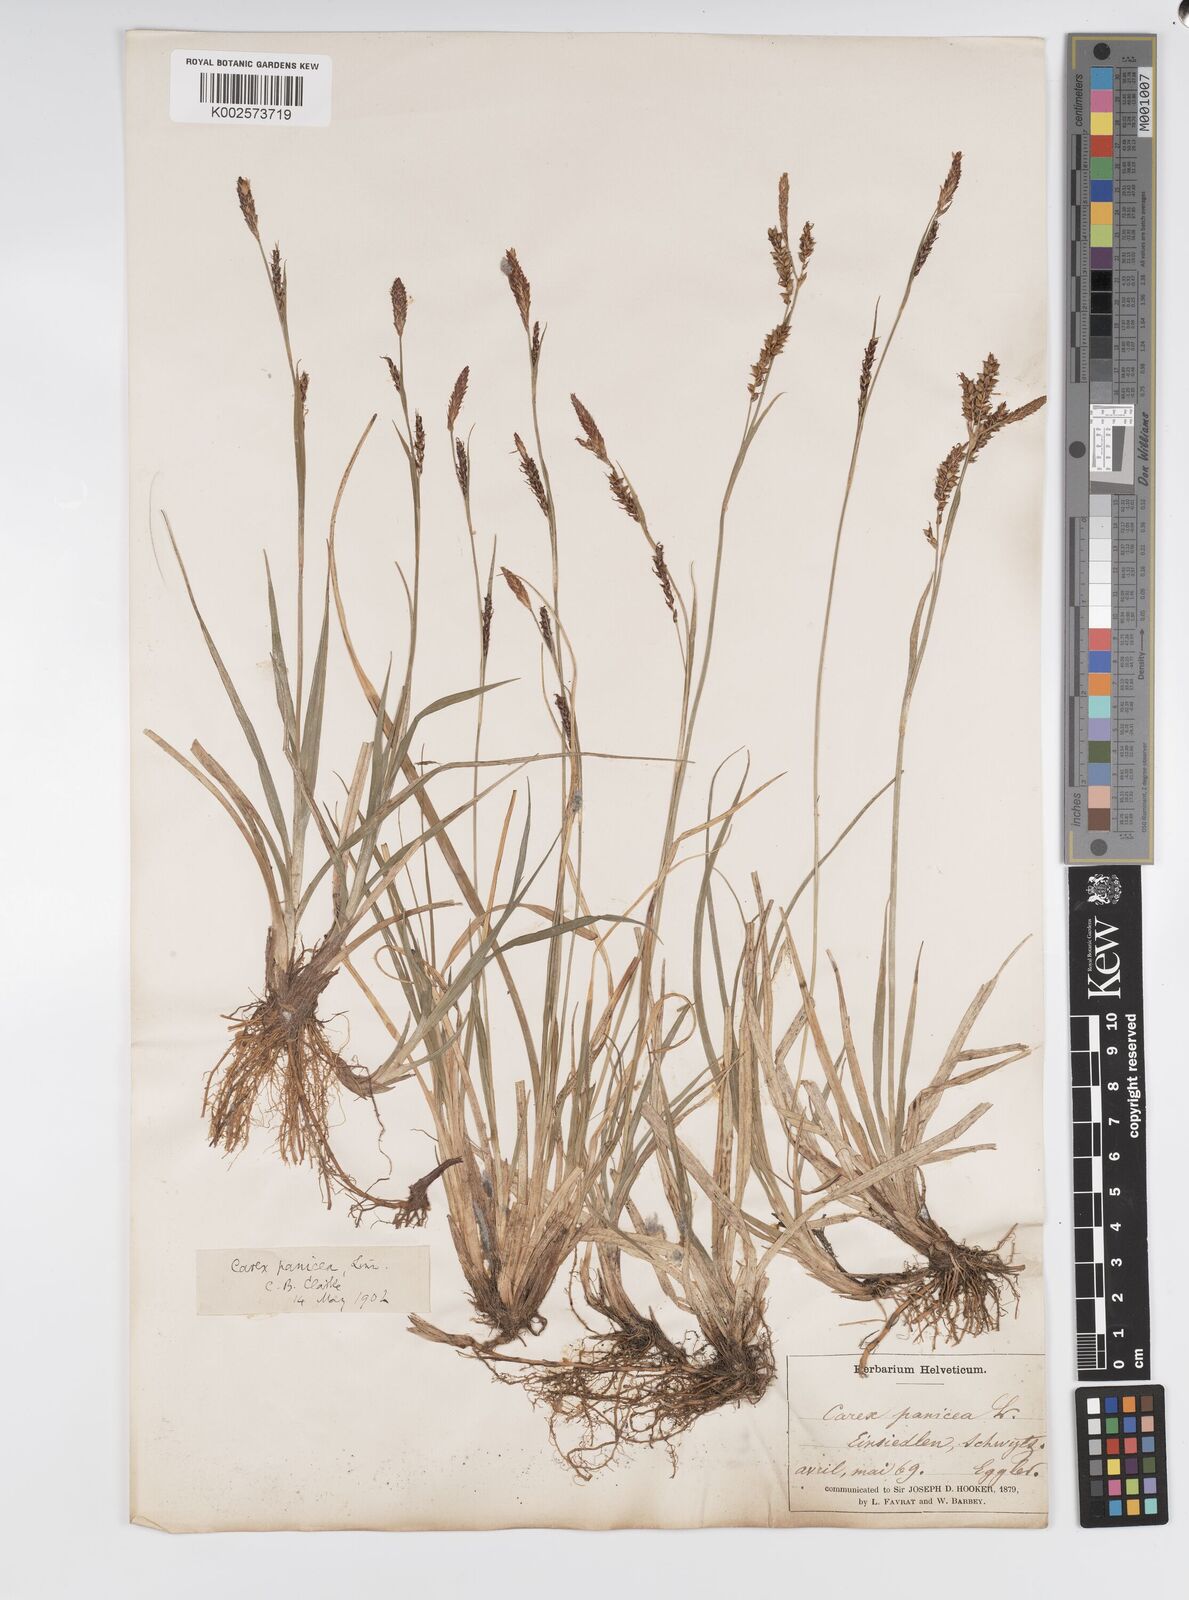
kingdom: Plantae
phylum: Tracheophyta
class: Liliopsida
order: Poales
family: Cyperaceae
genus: Carex
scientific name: Carex panicea
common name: Carnation sedge
